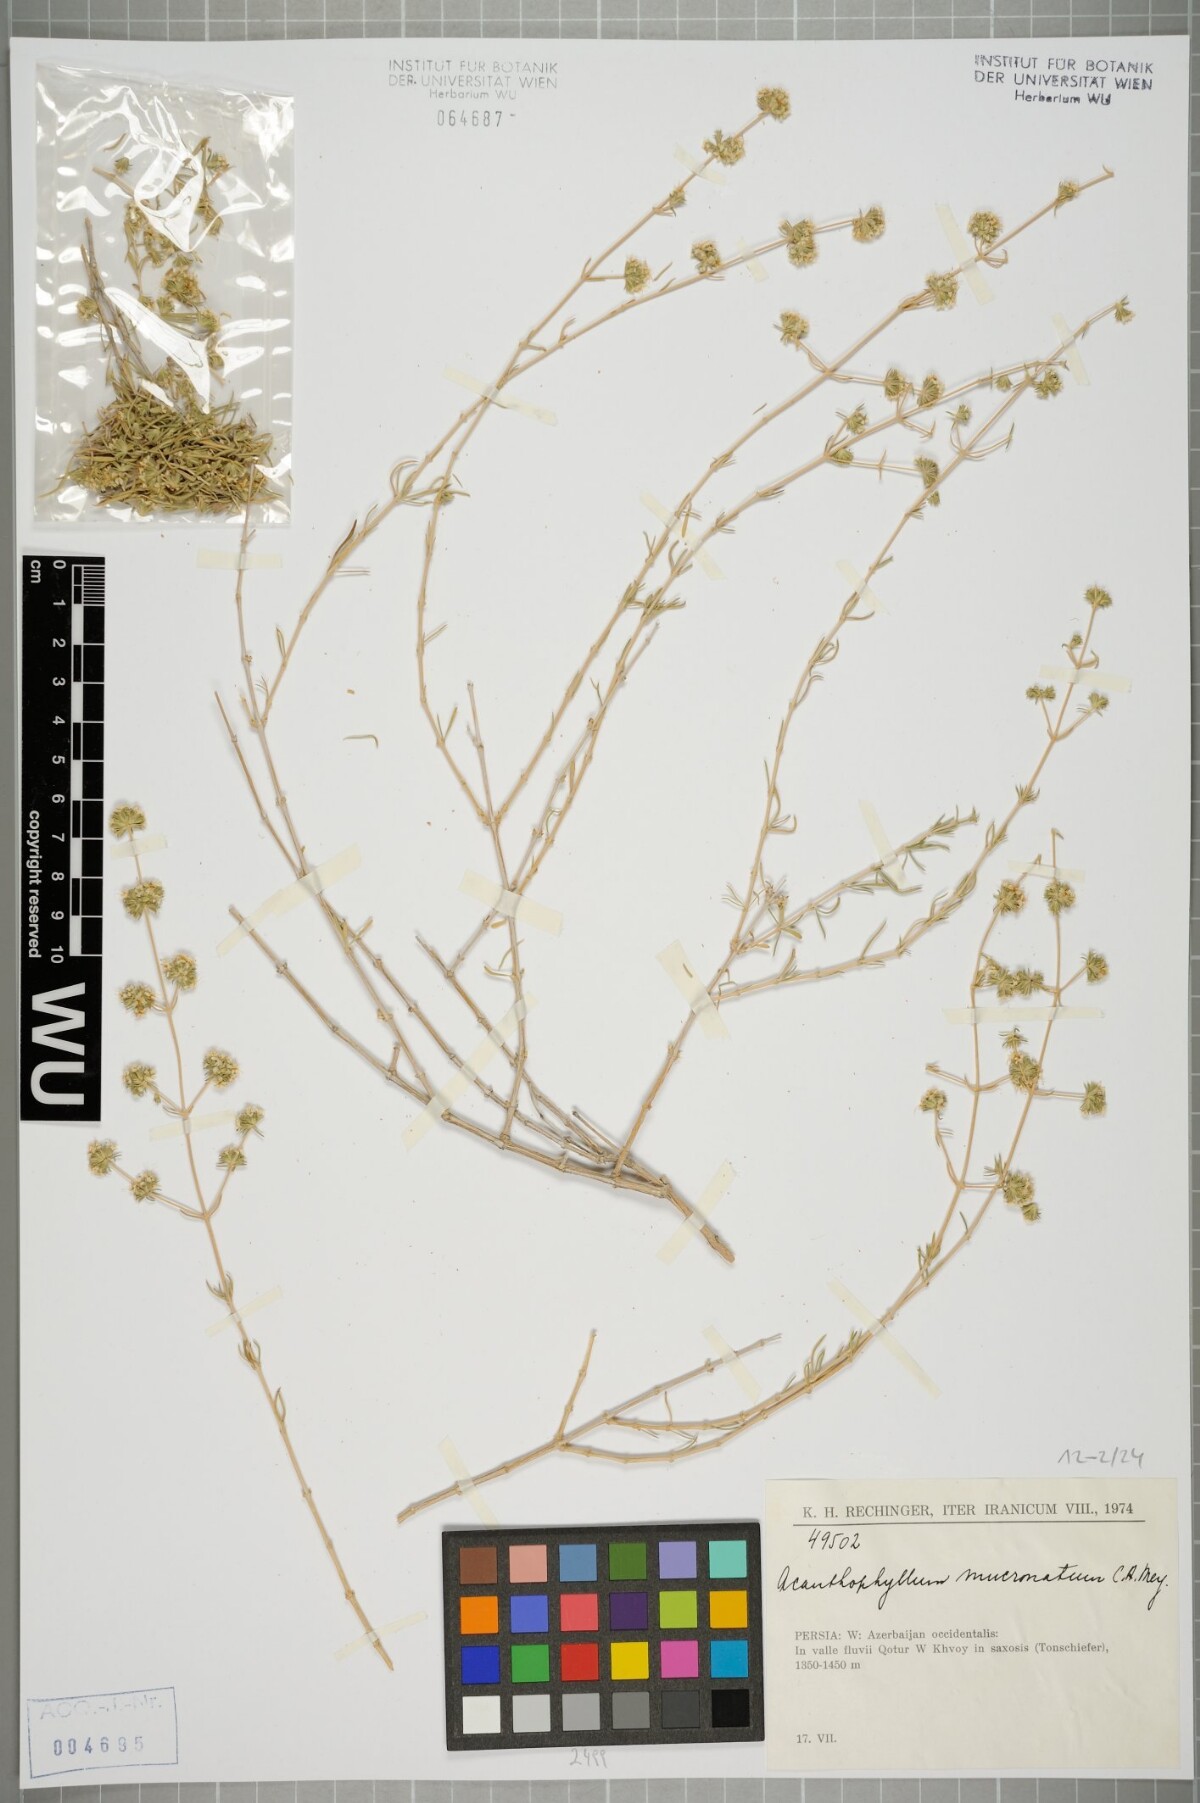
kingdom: Plantae
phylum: Tracheophyta
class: Magnoliopsida
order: Caryophyllales
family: Caryophyllaceae
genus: Acanthophyllum
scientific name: Acanthophyllum mucronatum
